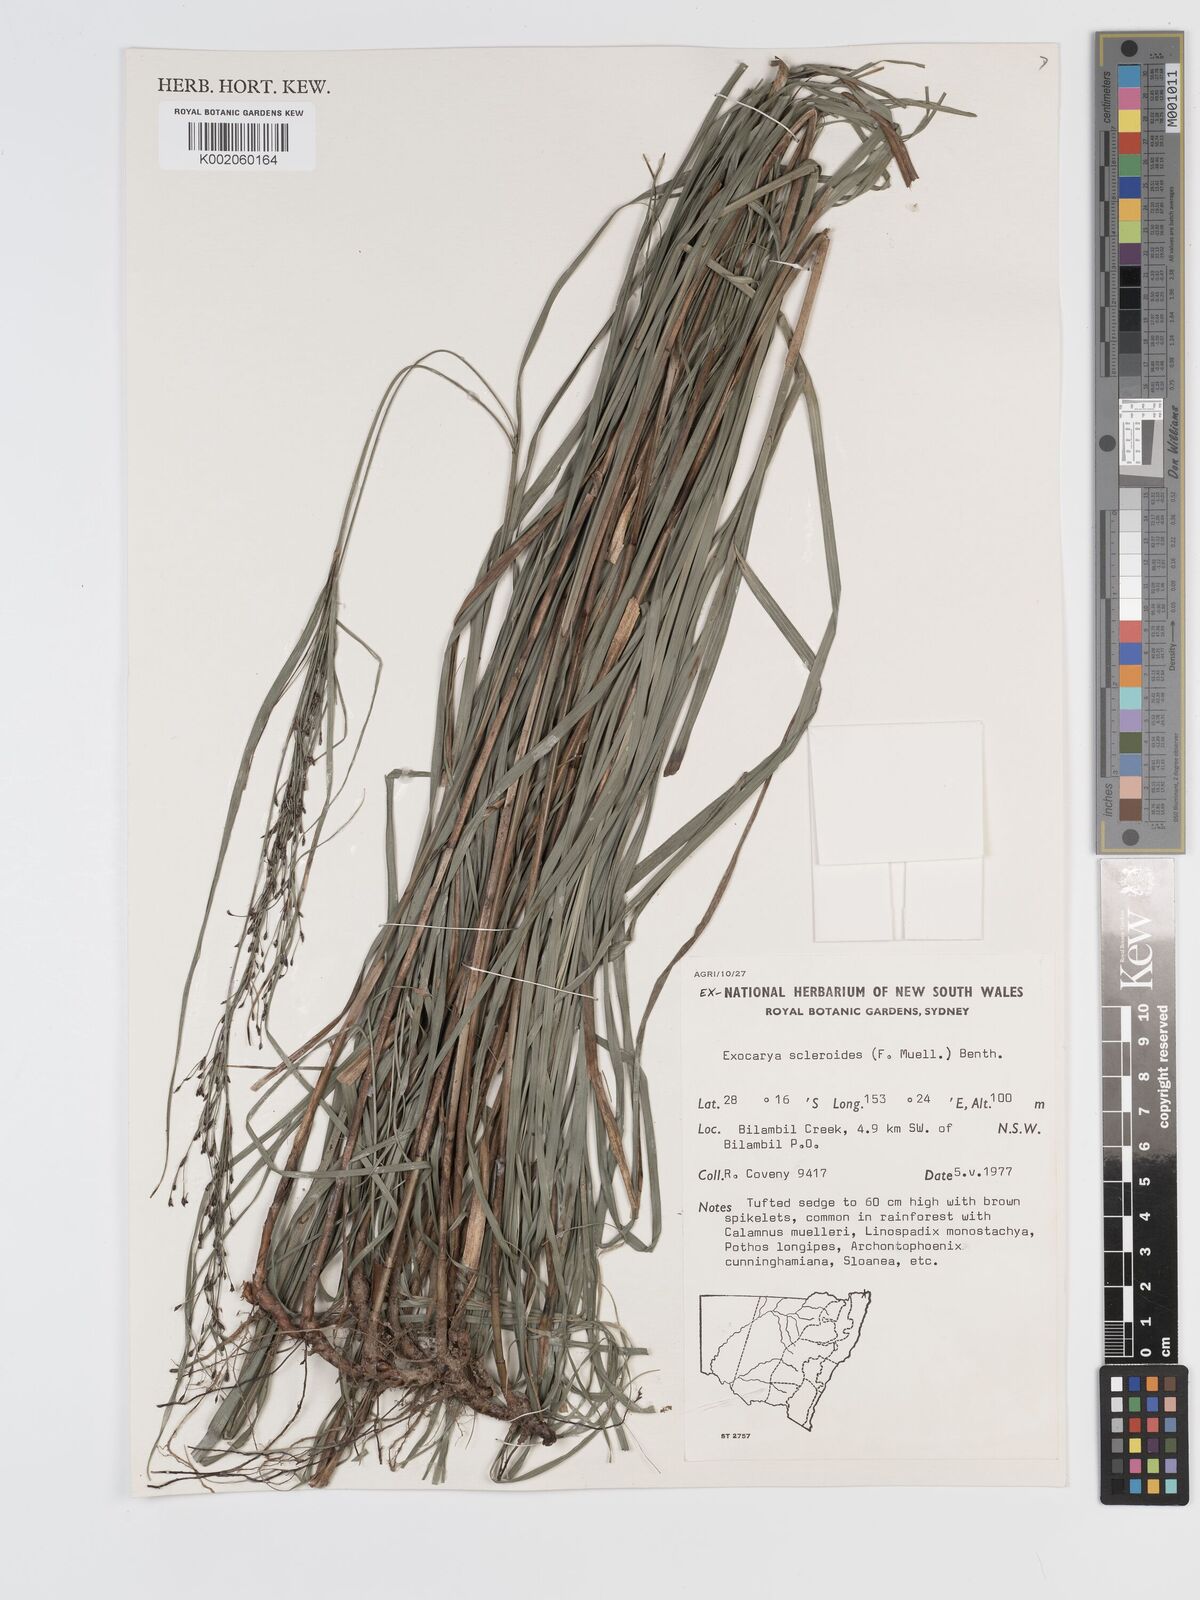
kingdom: Plantae
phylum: Tracheophyta
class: Liliopsida
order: Poales
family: Cyperaceae
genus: Exocarya
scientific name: Exocarya sclerioides
